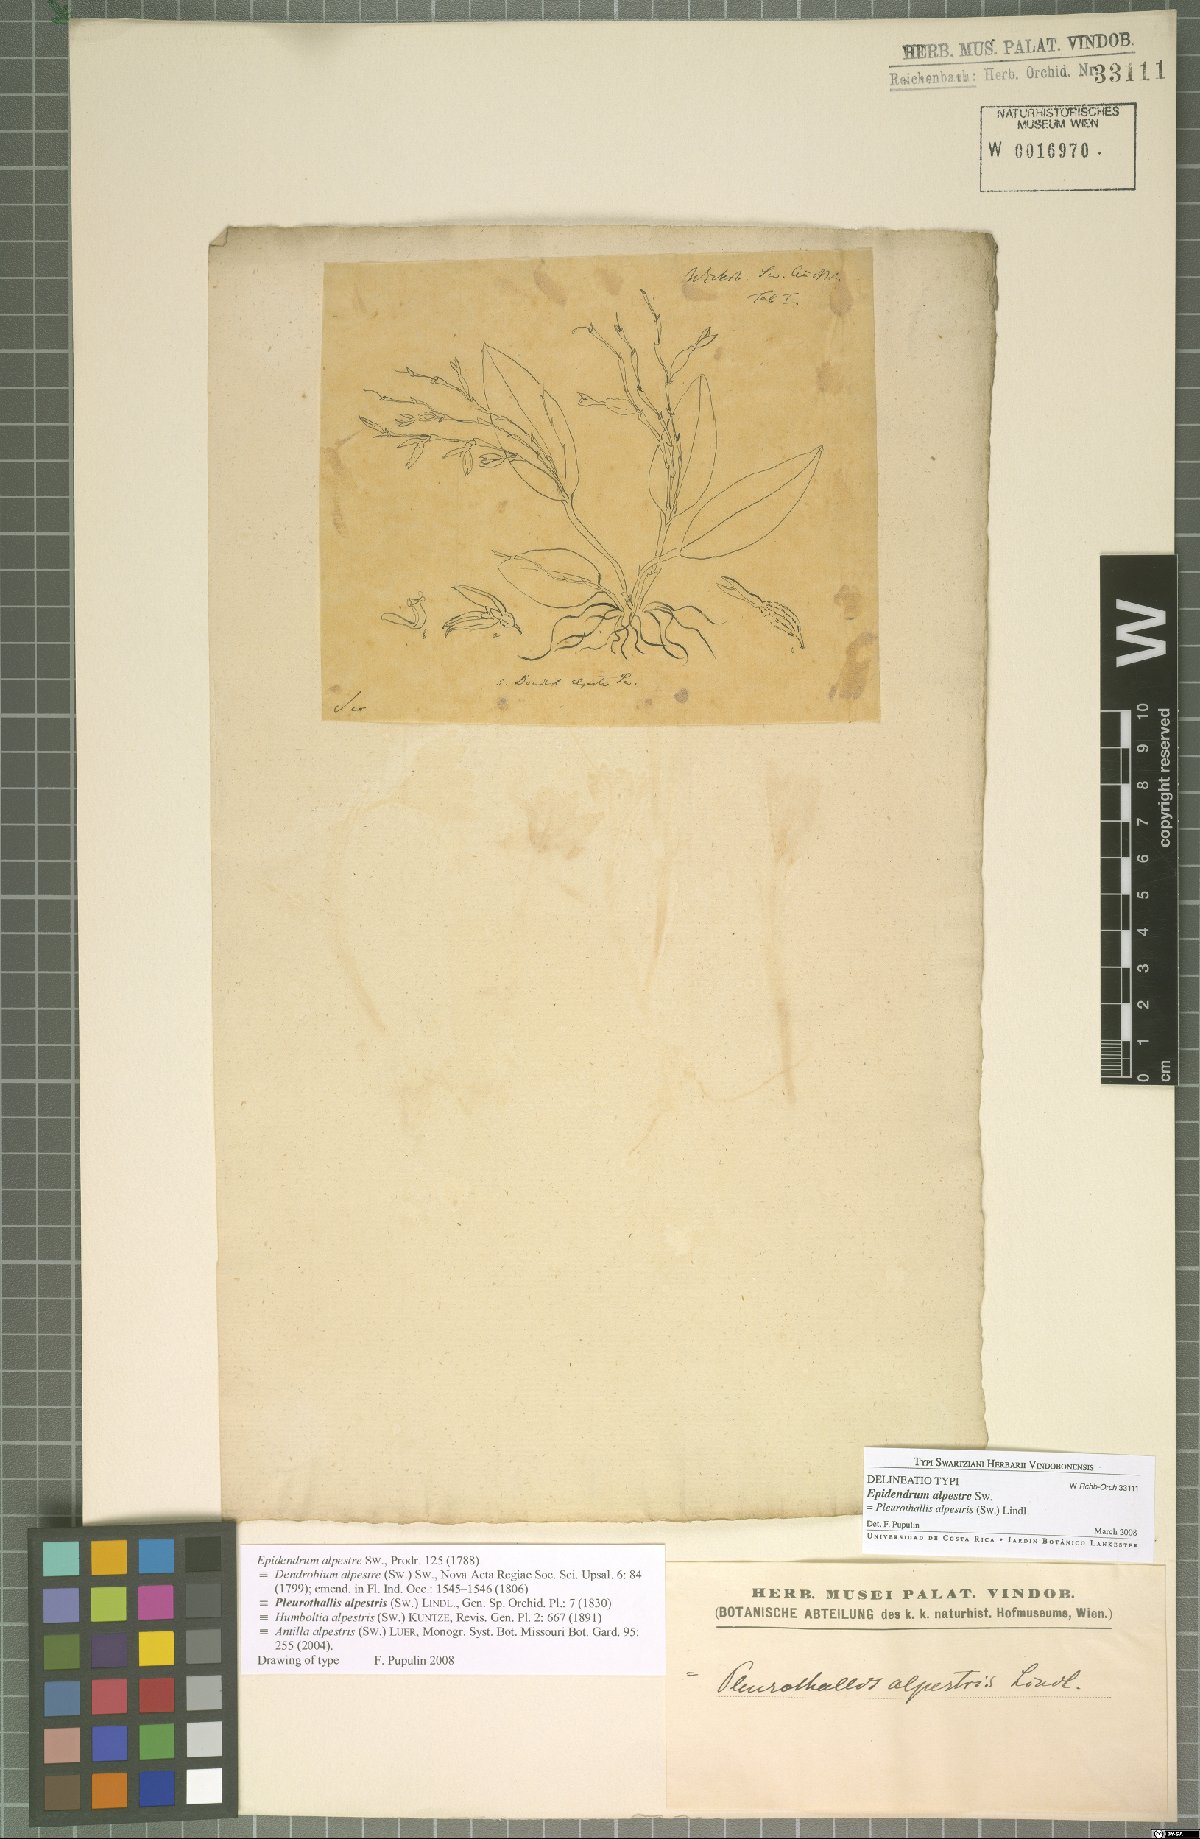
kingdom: Plantae
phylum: Tracheophyta
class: Liliopsida
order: Asparagales
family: Orchidaceae
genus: Acianthera
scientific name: Acianthera alpestris
